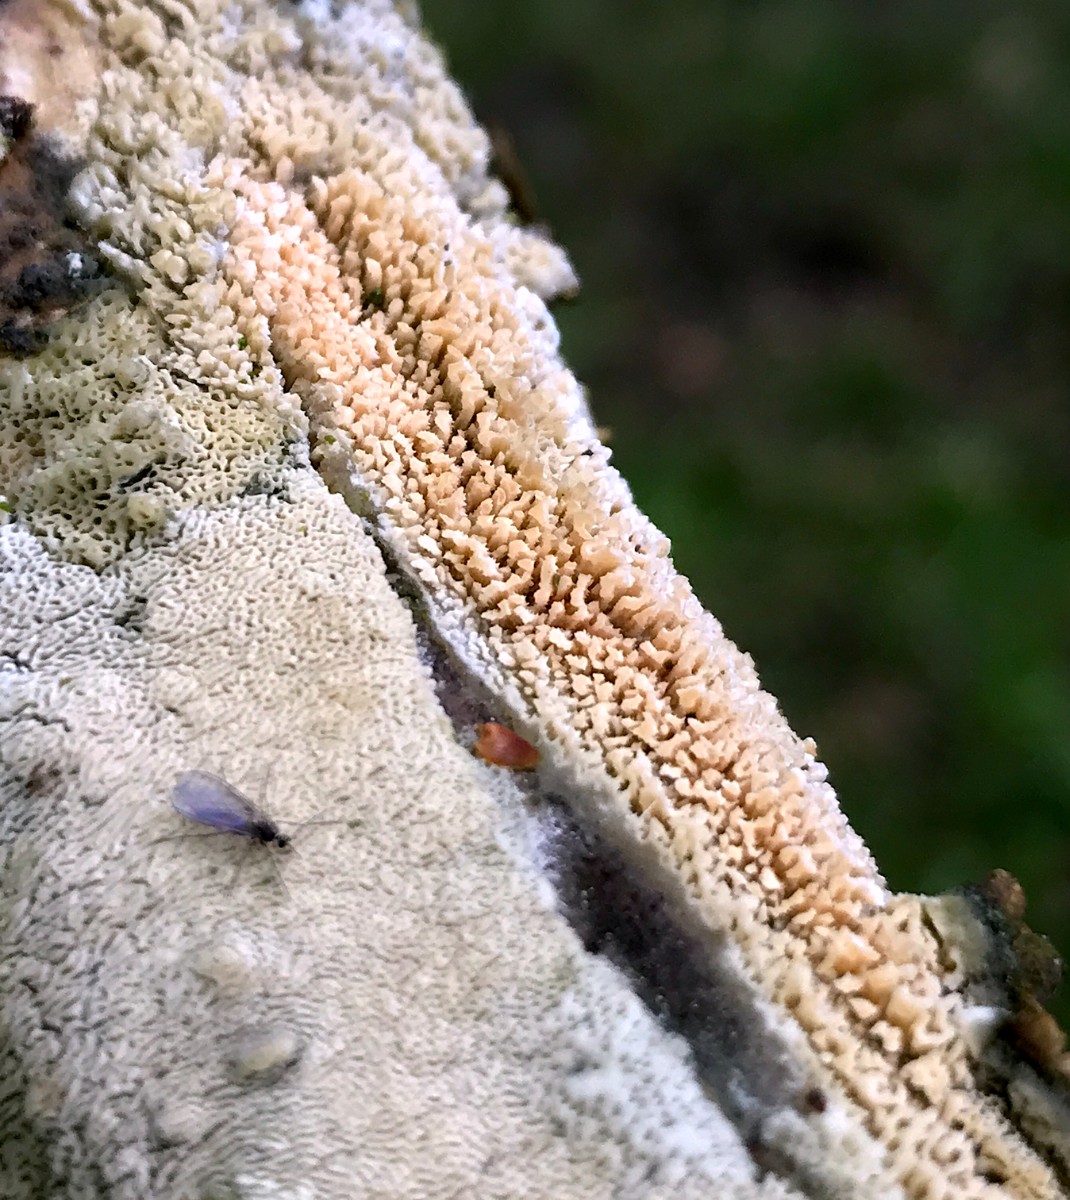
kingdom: Fungi
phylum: Basidiomycota
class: Agaricomycetes
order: Hymenochaetales
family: Schizoporaceae
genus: Schizopora
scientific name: Schizopora paradoxa
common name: hvid tandsvamp
